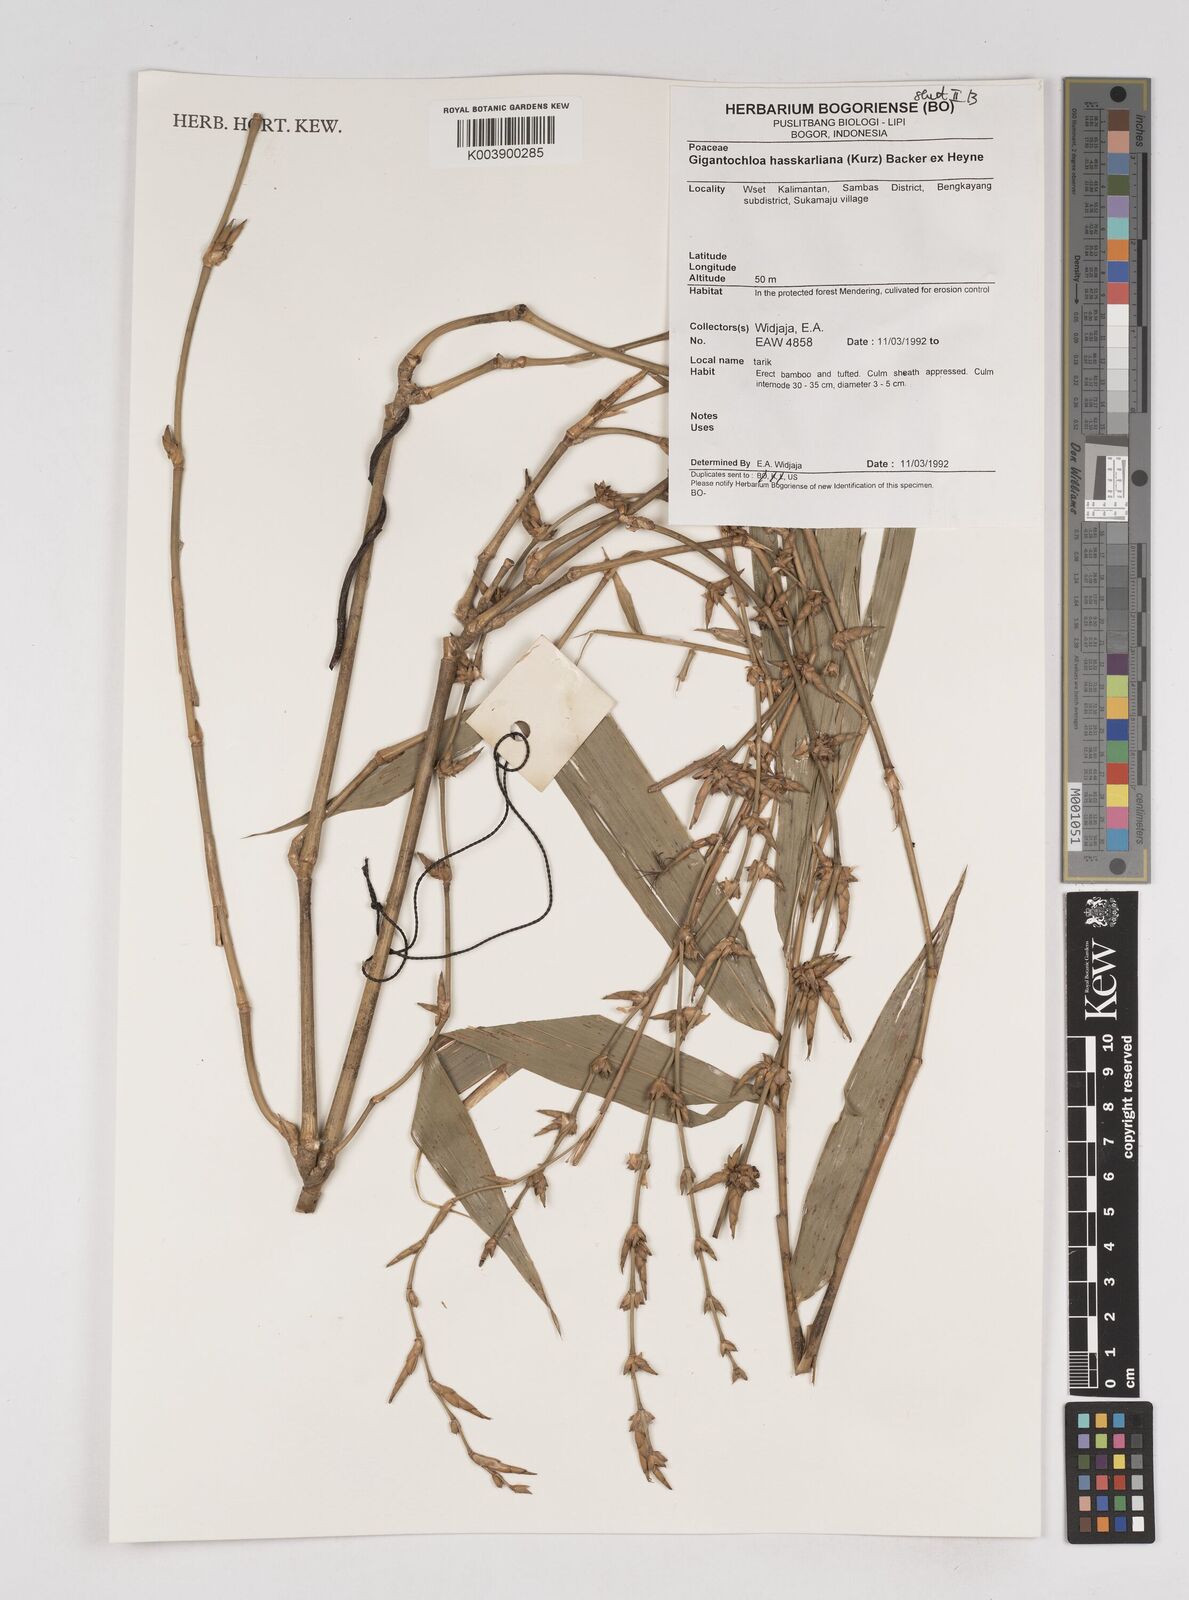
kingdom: Plantae
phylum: Tracheophyta
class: Liliopsida
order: Poales
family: Poaceae
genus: Gigantochloa
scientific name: Gigantochloa hasskarliana
